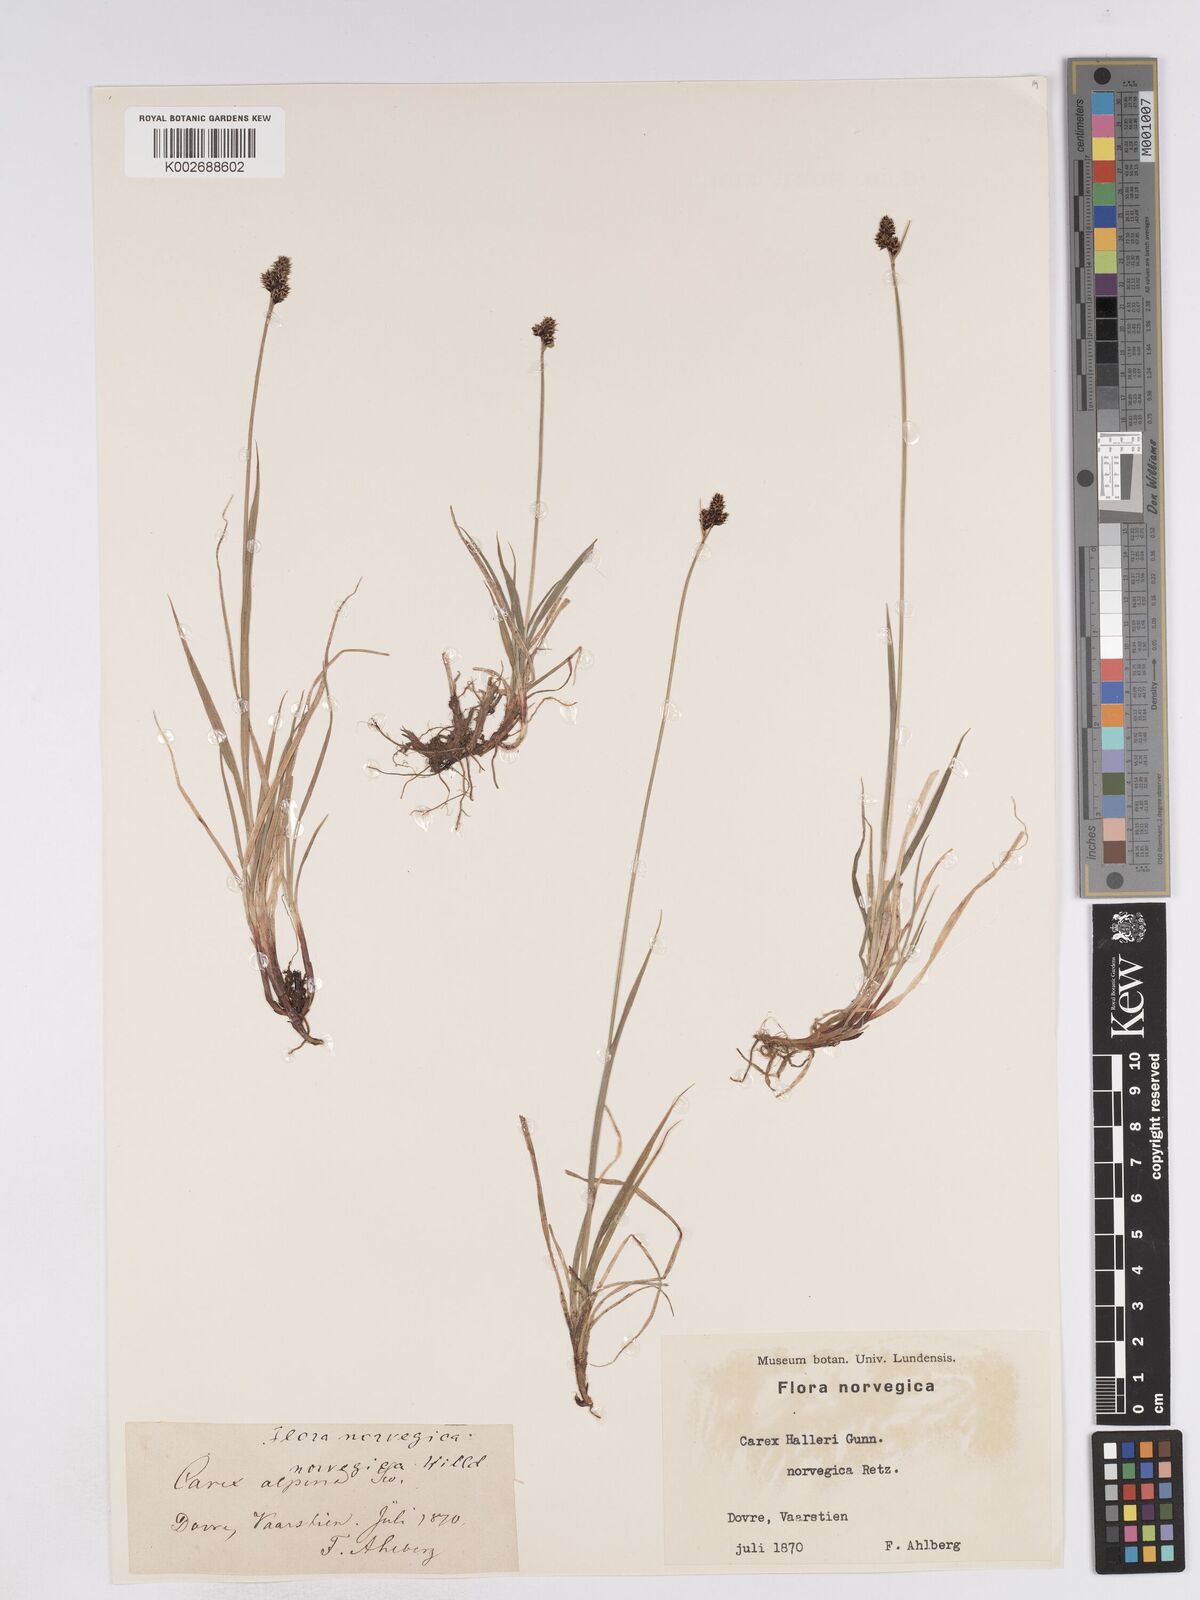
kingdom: Plantae
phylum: Tracheophyta
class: Liliopsida
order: Poales
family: Cyperaceae
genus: Carex
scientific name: Carex norvegica
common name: Close-headed alpine-sedge
